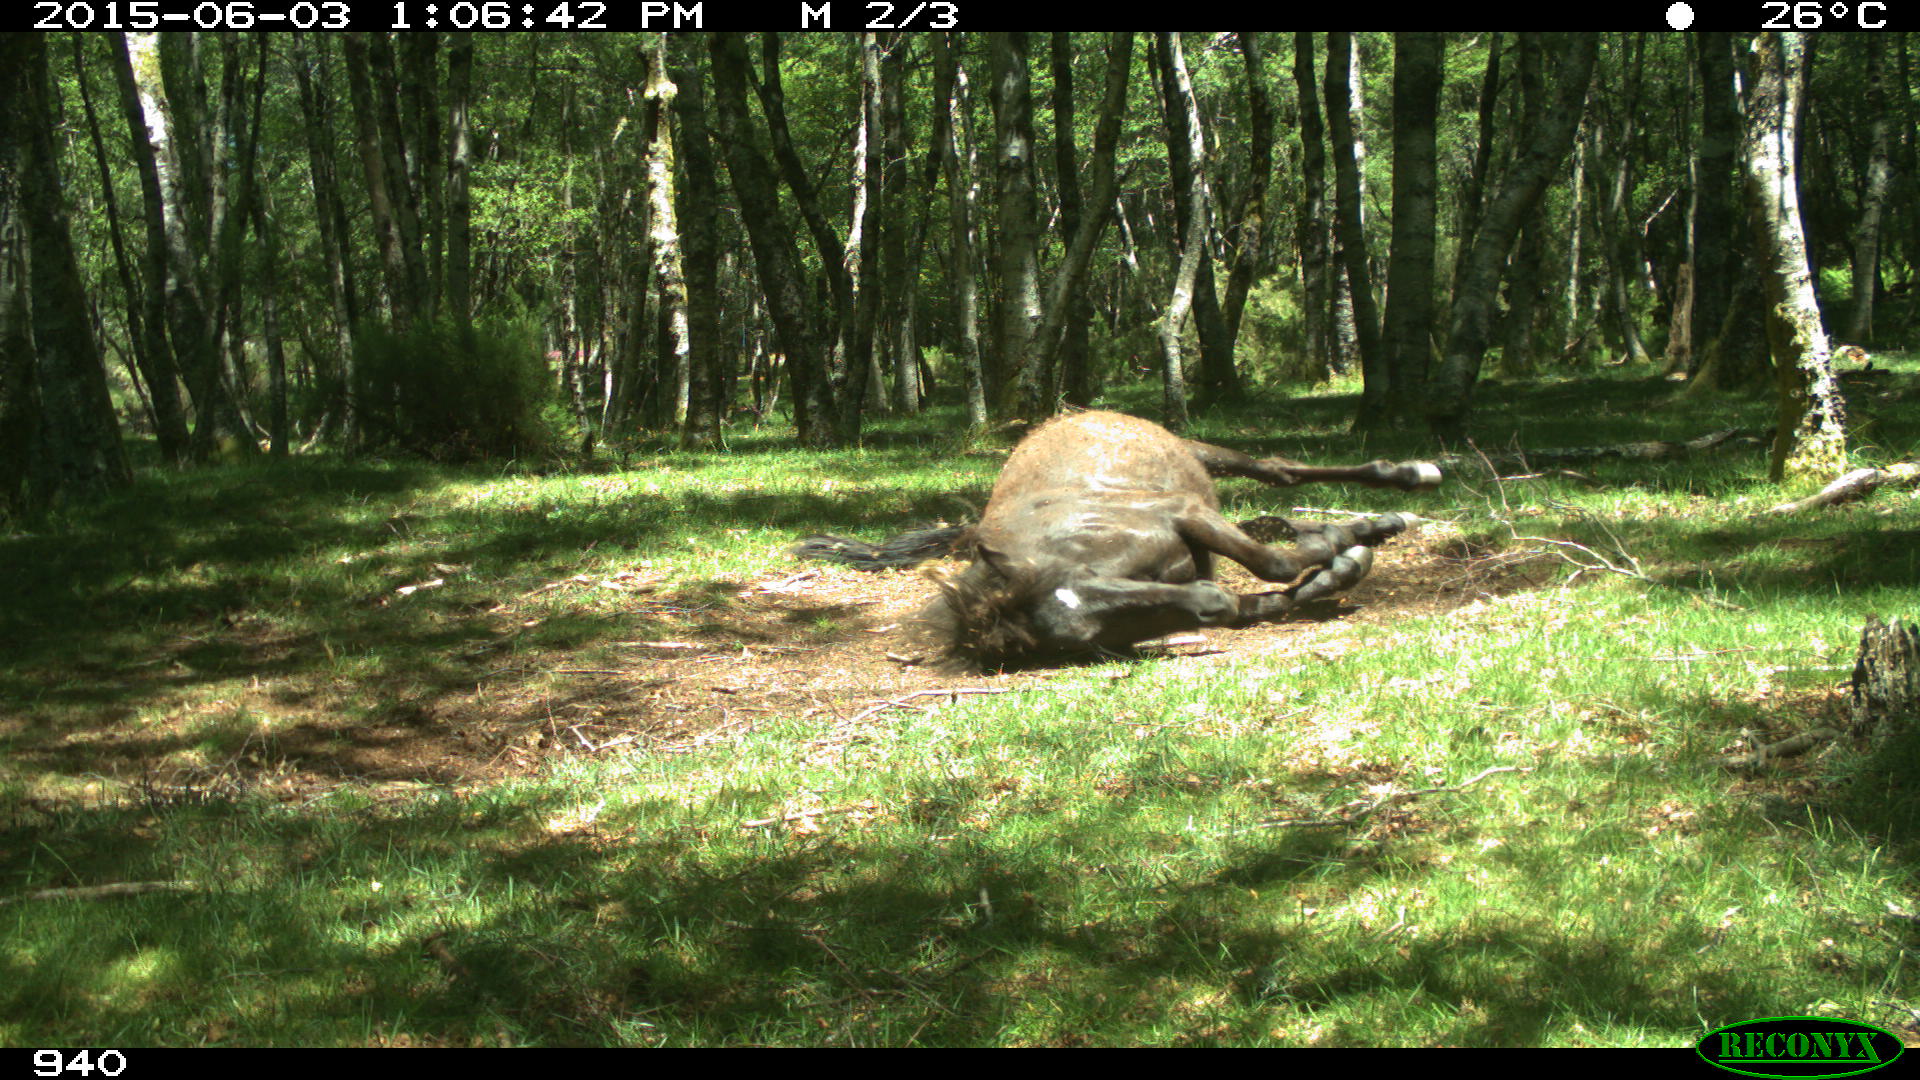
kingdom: Animalia
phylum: Chordata
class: Mammalia
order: Perissodactyla
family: Equidae
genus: Equus
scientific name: Equus caballus
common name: Horse
